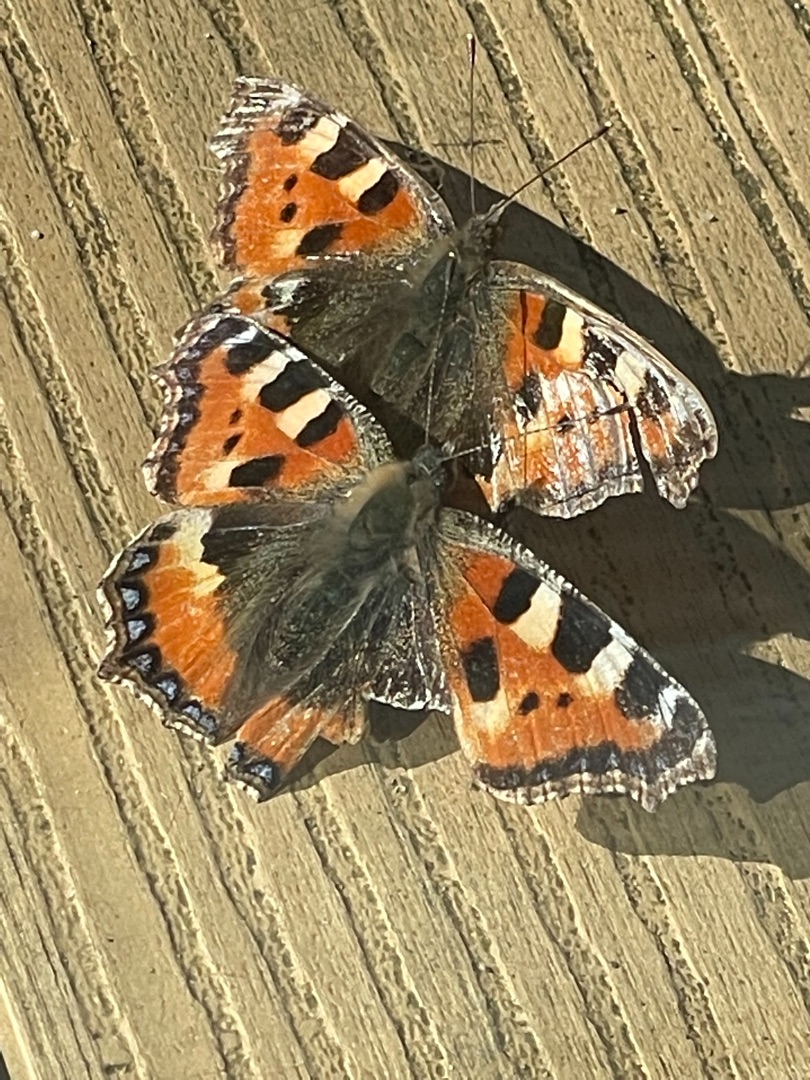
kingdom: Animalia
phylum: Arthropoda
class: Insecta
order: Lepidoptera
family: Nymphalidae
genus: Aglais
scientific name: Aglais urticae
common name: Nældens takvinge
